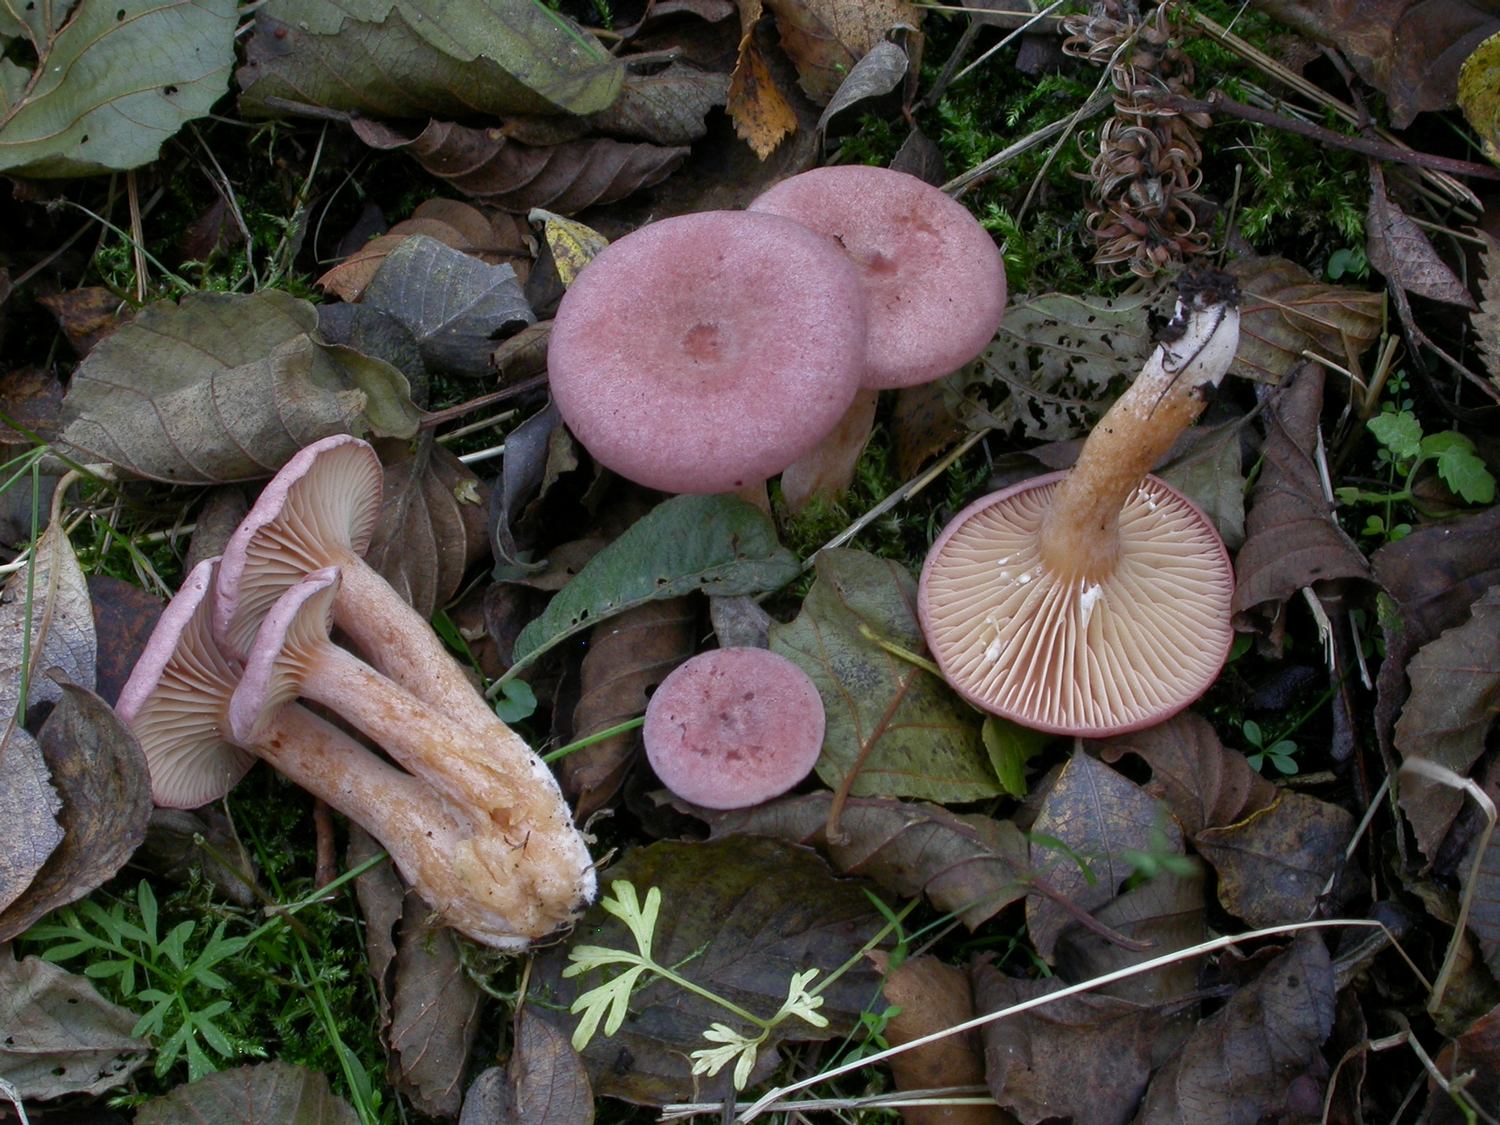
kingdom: Fungi
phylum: Basidiomycota
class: Agaricomycetes
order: Russulales
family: Russulaceae
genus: Lactarius
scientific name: Lactarius lilacinus
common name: lilla mælkehat
